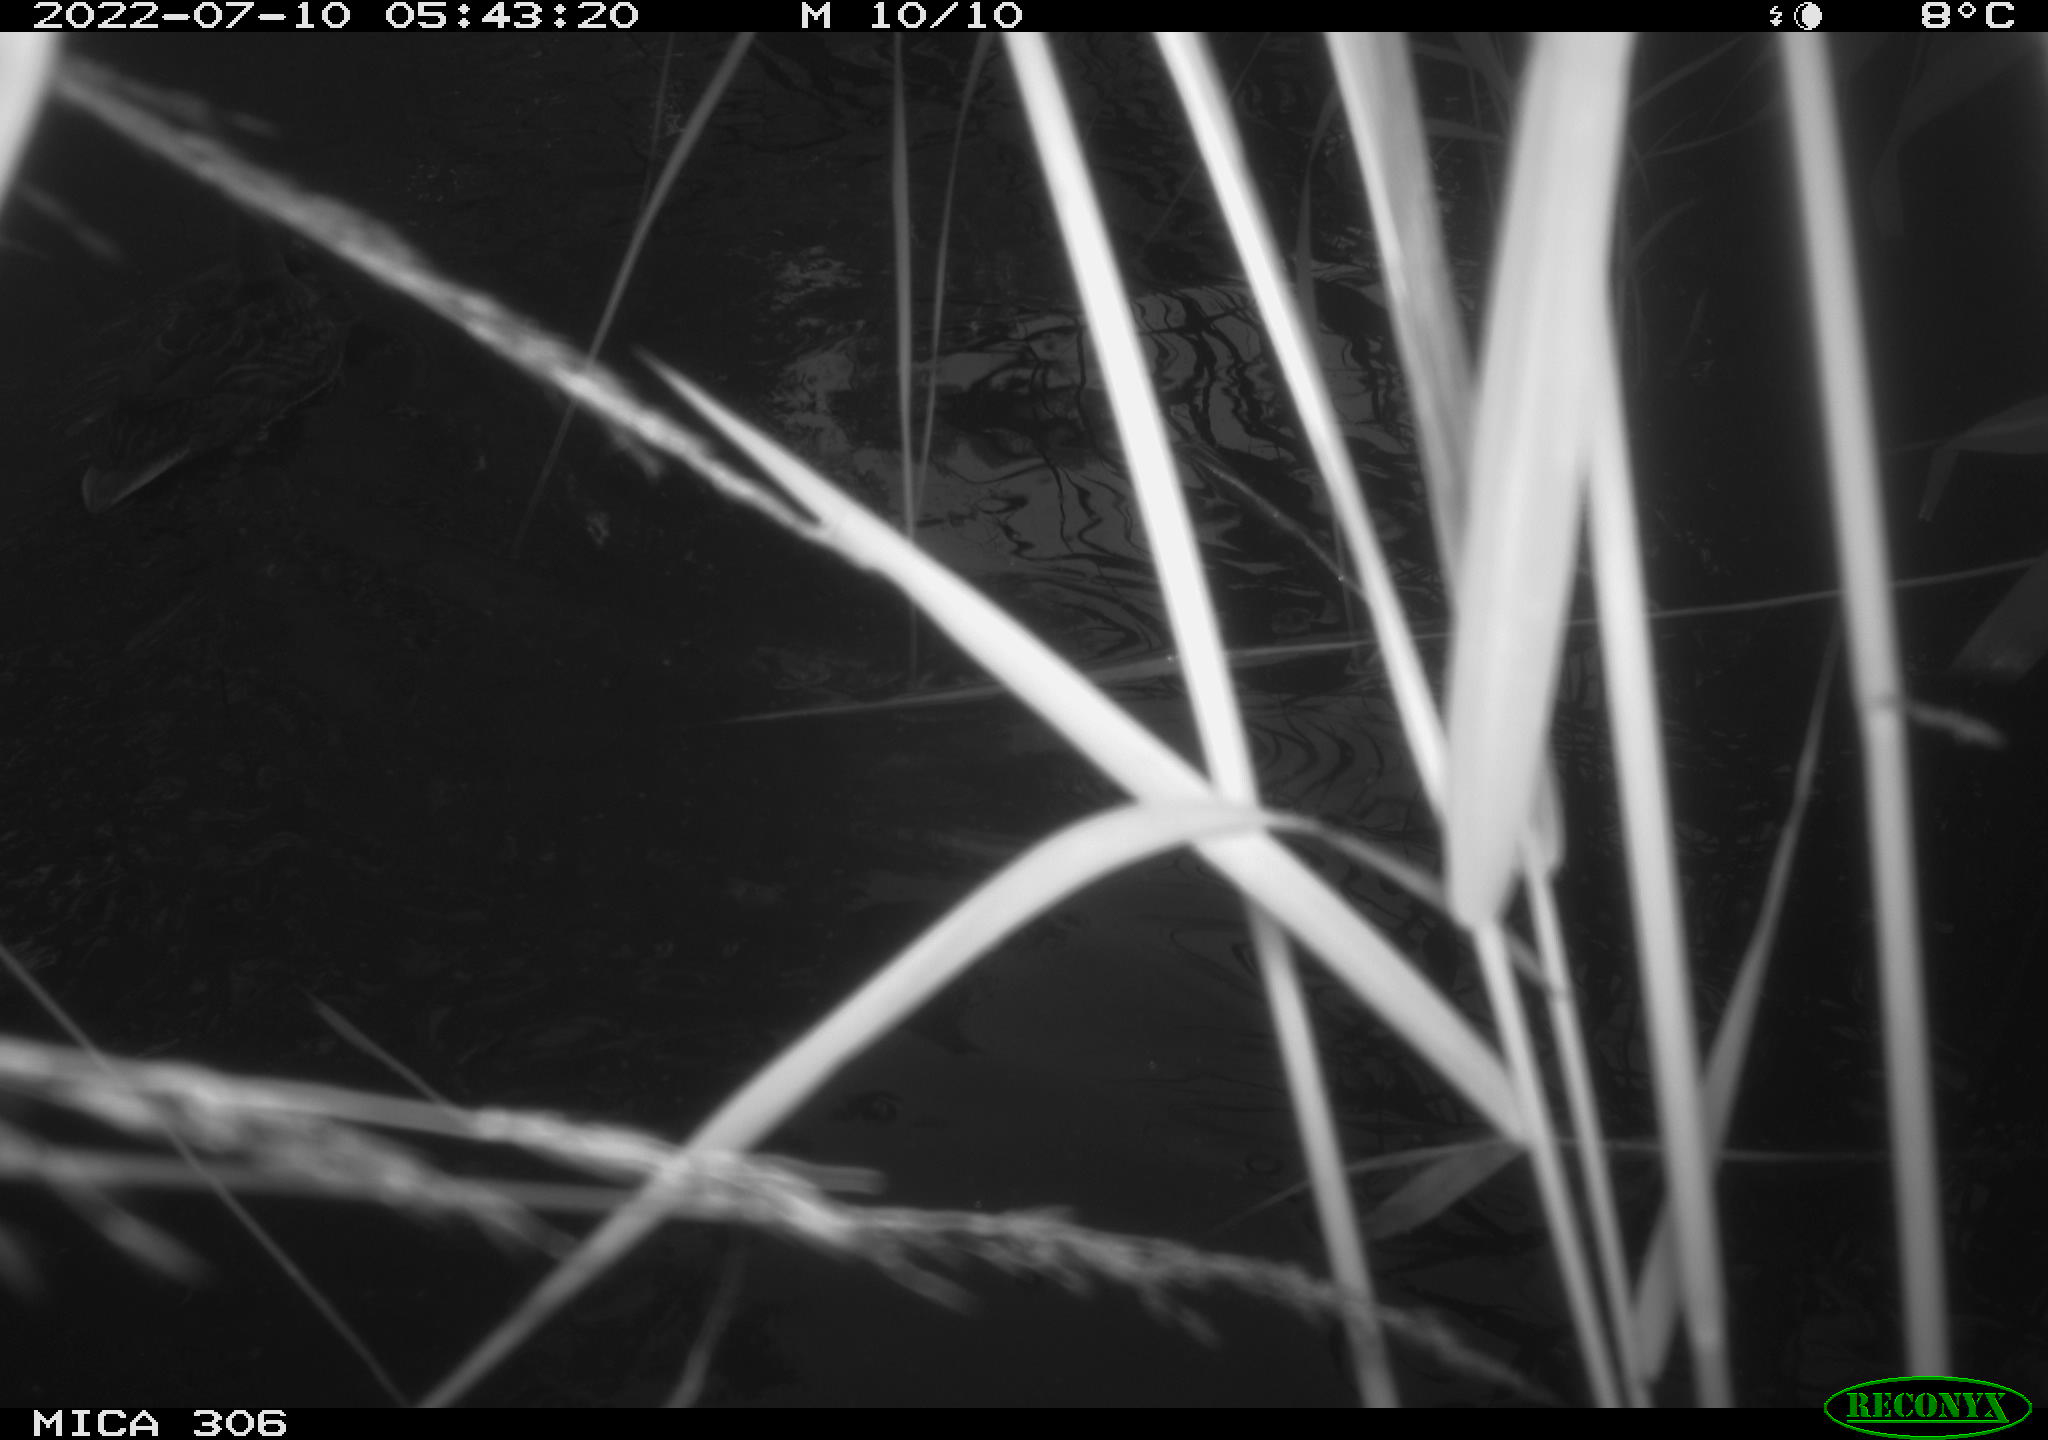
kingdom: Animalia
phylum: Chordata
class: Aves
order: Anseriformes
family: Anatidae
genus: Anas
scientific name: Anas platyrhynchos
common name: Mallard
